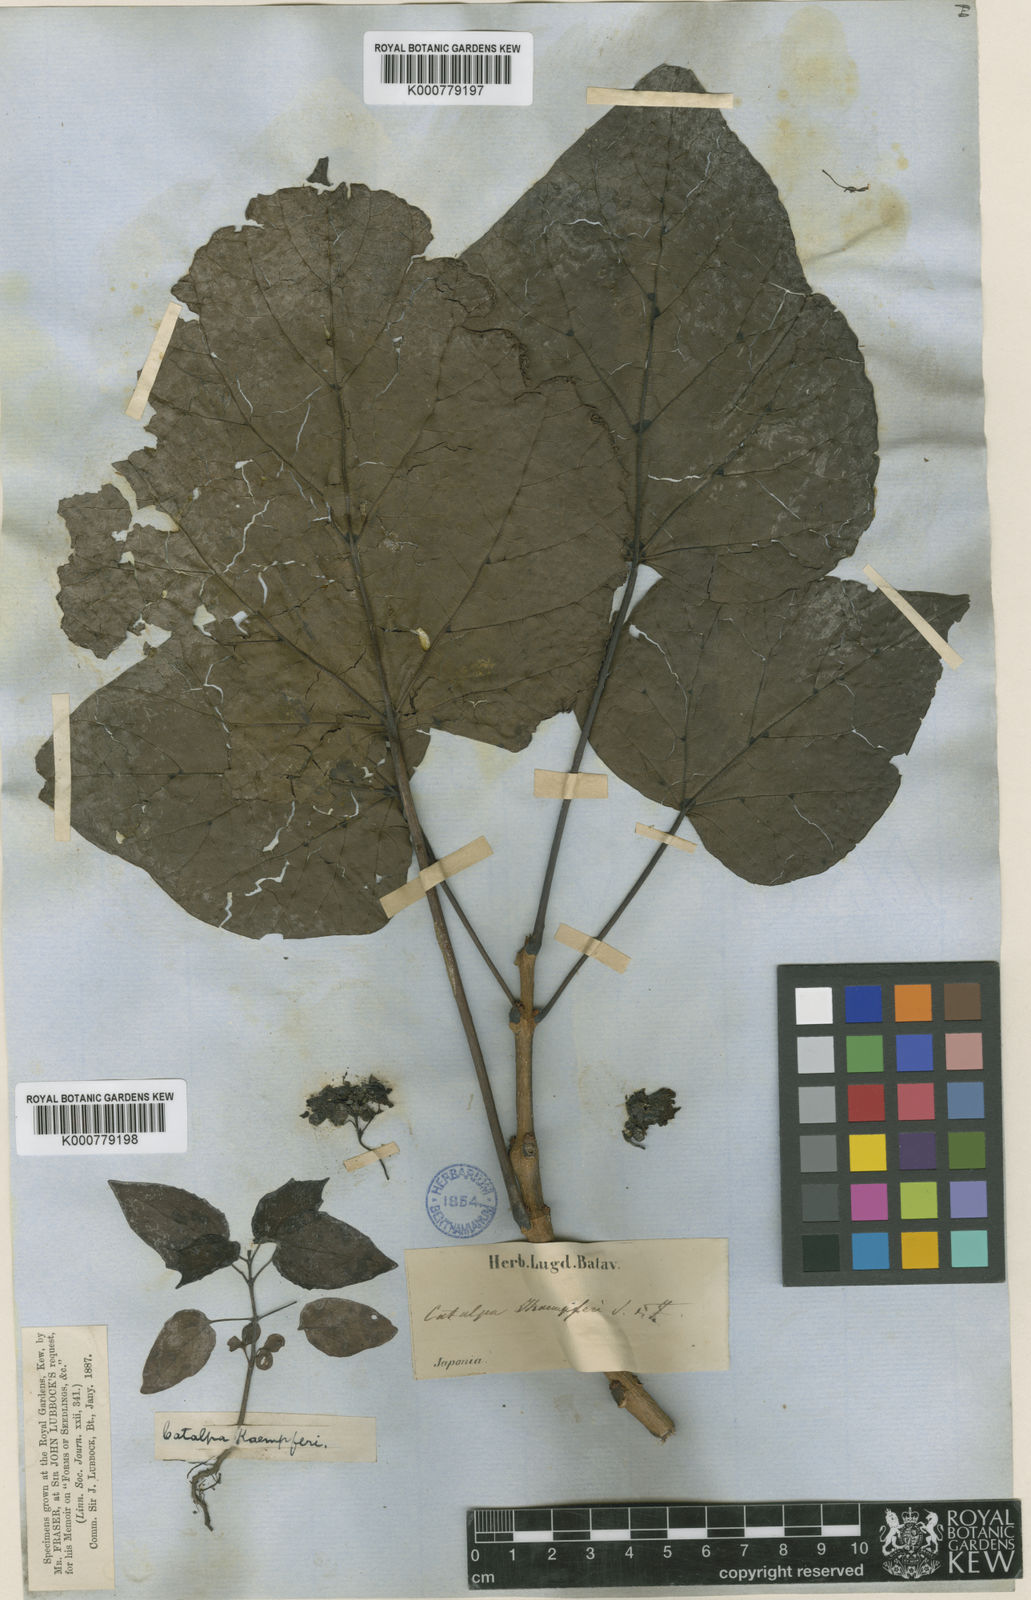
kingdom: Plantae
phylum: Tracheophyta
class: Magnoliopsida
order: Lamiales
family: Bignoniaceae
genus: Catalpa
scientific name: Catalpa ovata
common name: Chinese catalpa
